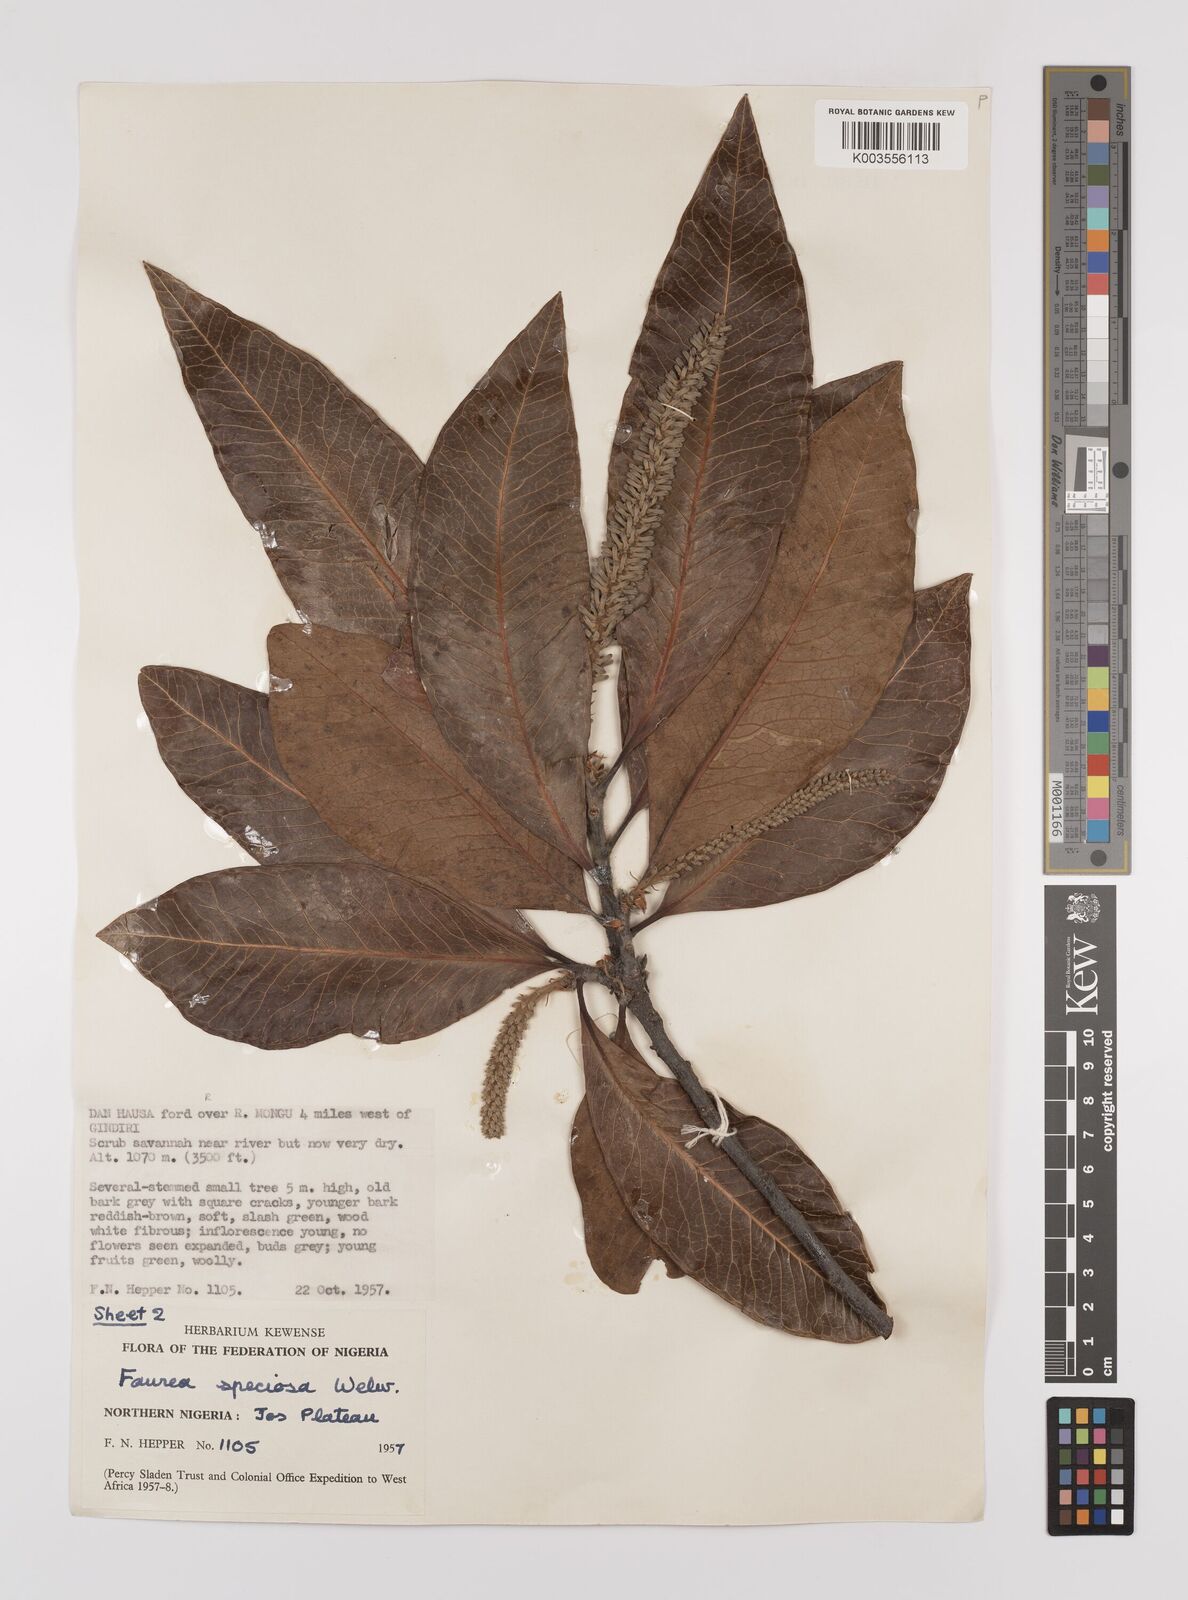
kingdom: Plantae
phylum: Tracheophyta
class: Magnoliopsida
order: Proteales
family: Proteaceae
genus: Faurea
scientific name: Faurea rochetiana
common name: Broad-leaved beech
